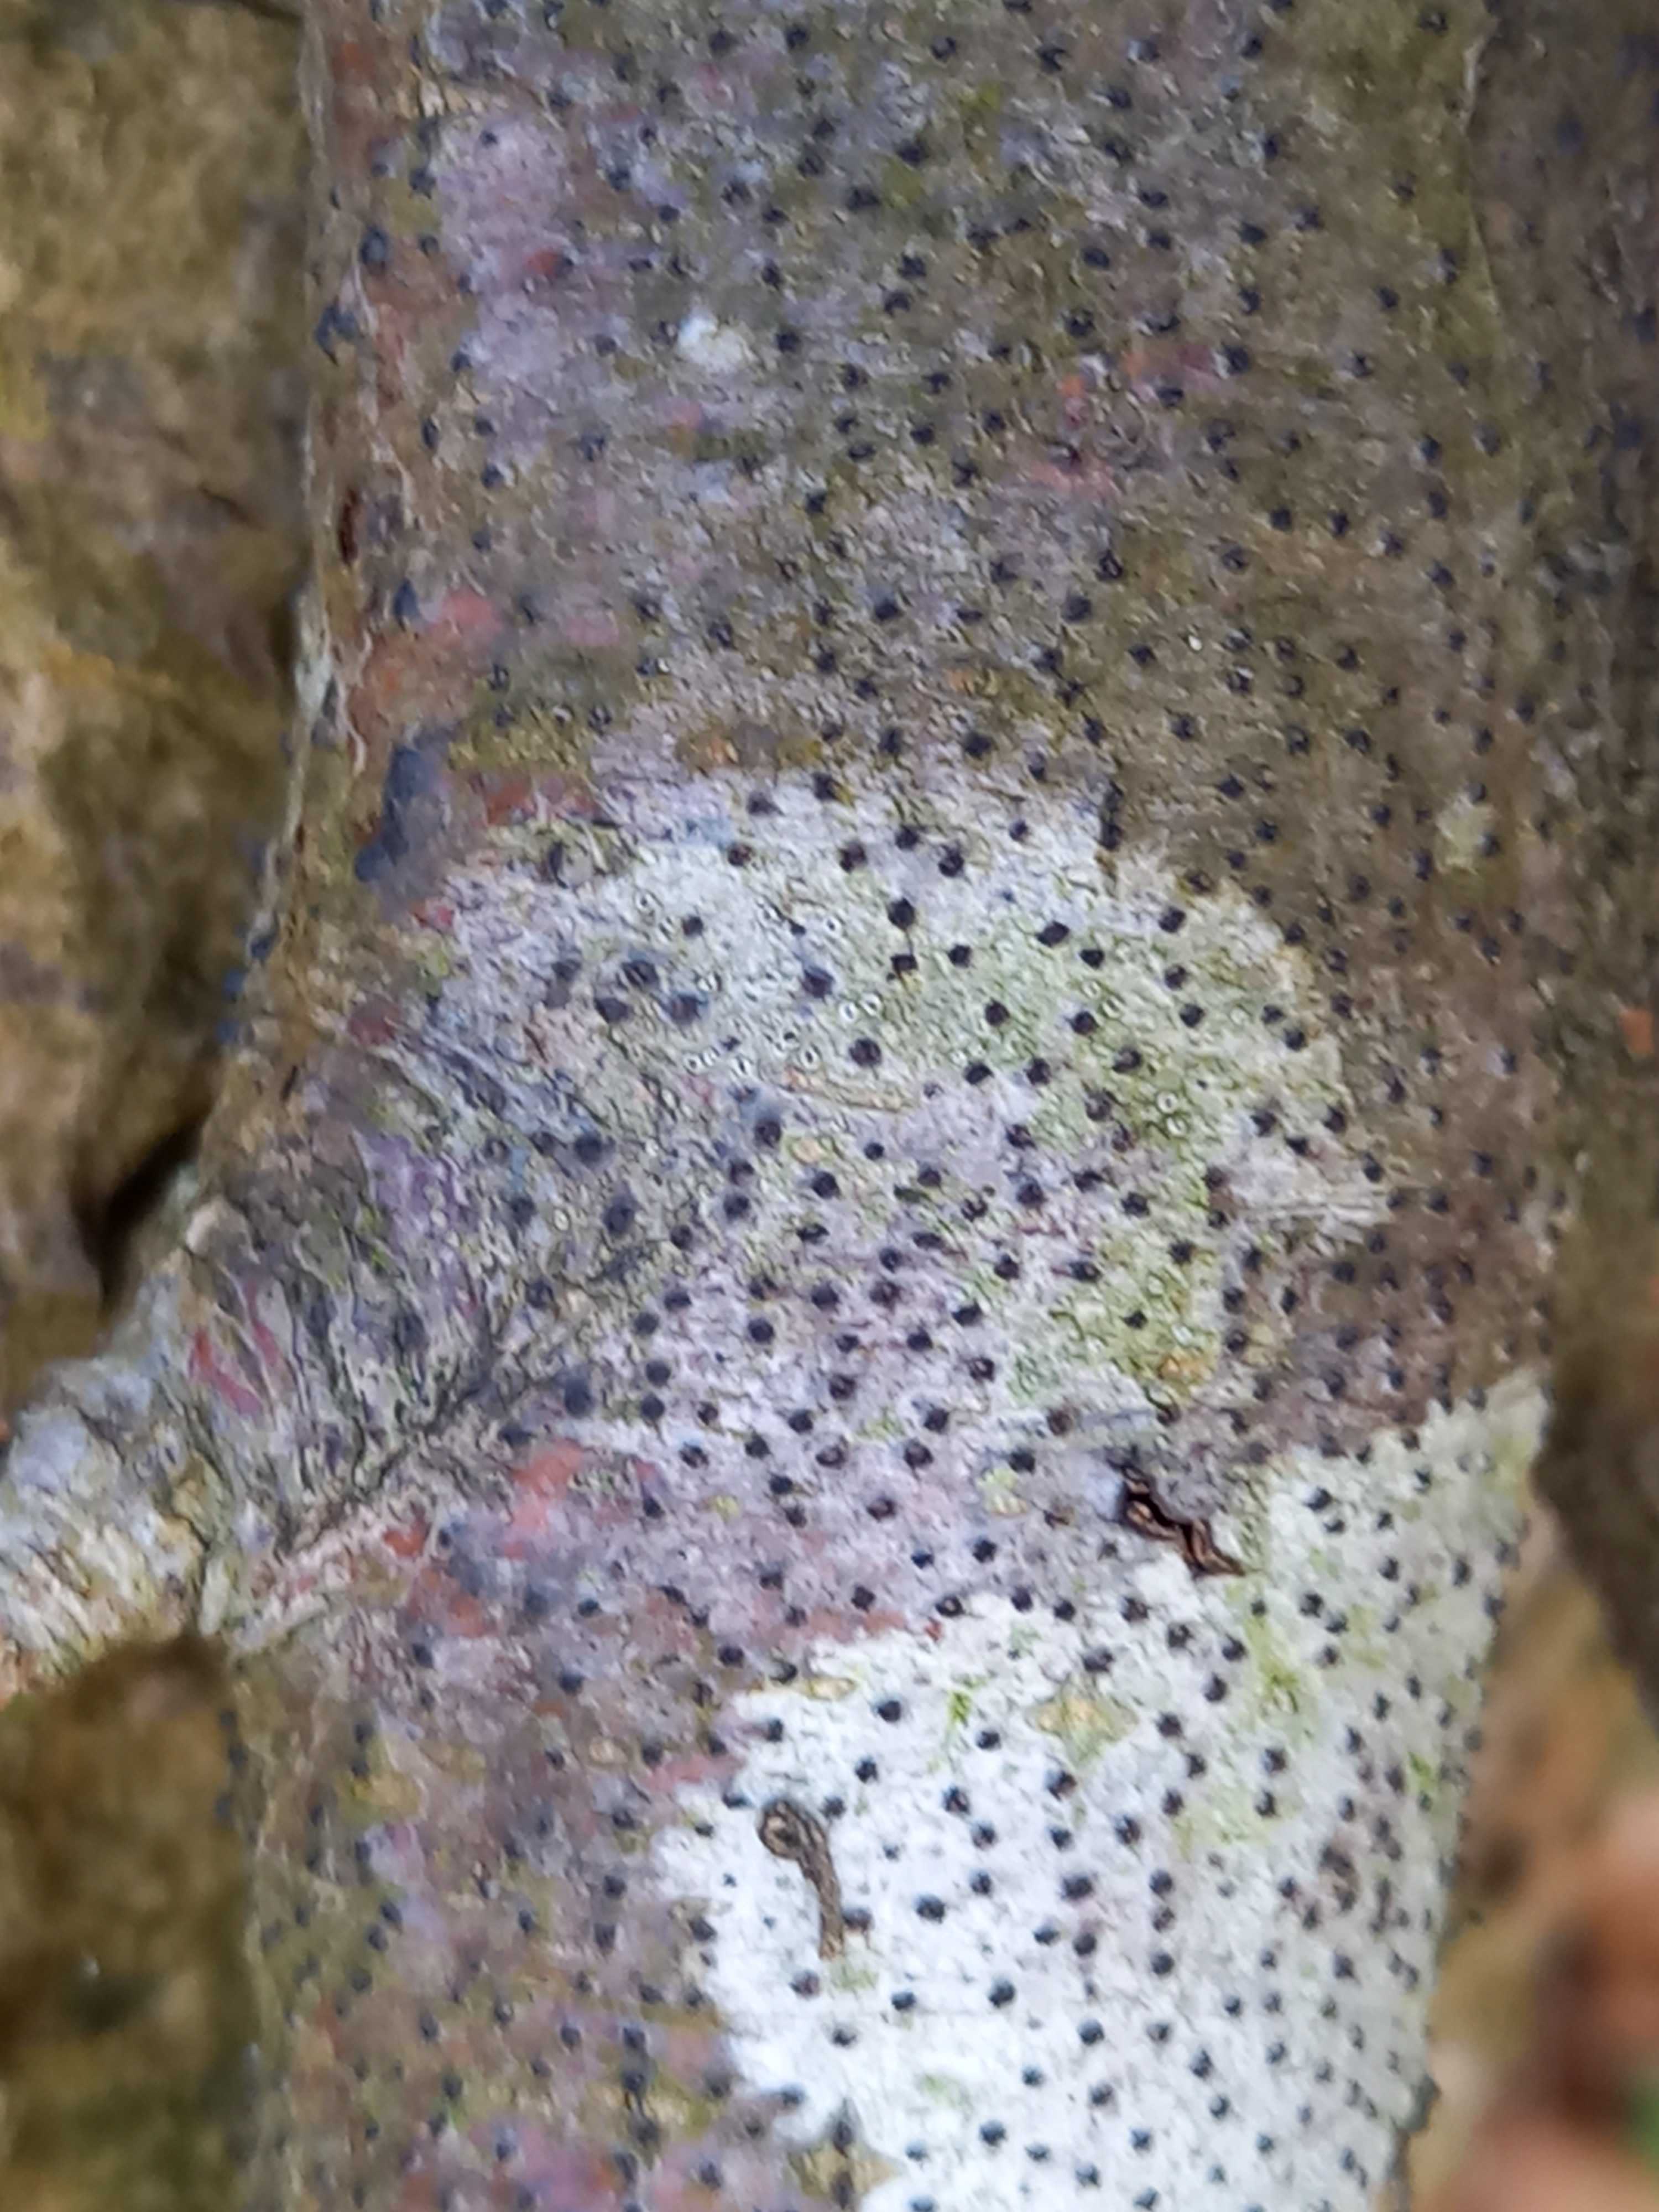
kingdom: Fungi
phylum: Ascomycota
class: Sordariomycetes
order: Xylariales
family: Diatrypaceae
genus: Eutypella
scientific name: Eutypella quaternata
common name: bøge-korsprik
